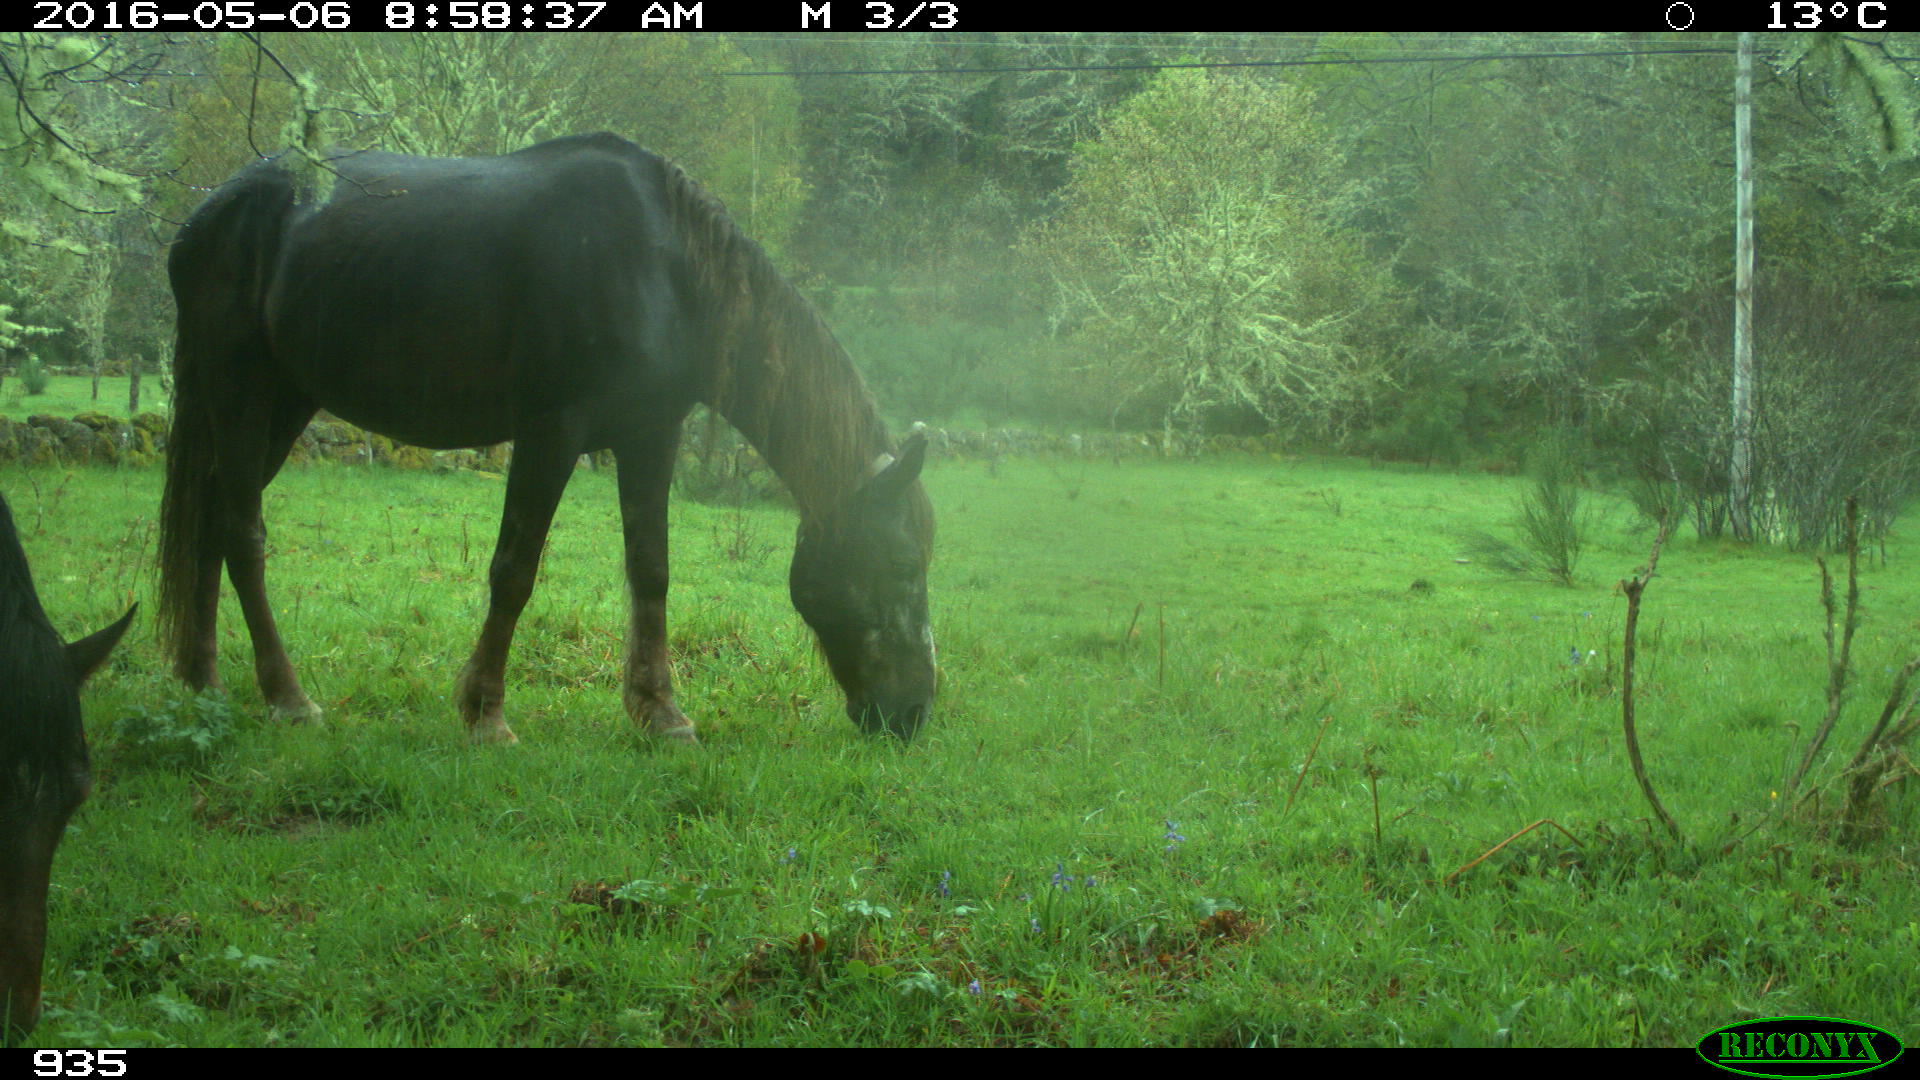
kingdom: Animalia
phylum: Chordata
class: Mammalia
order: Perissodactyla
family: Equidae
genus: Equus
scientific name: Equus caballus
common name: Horse
